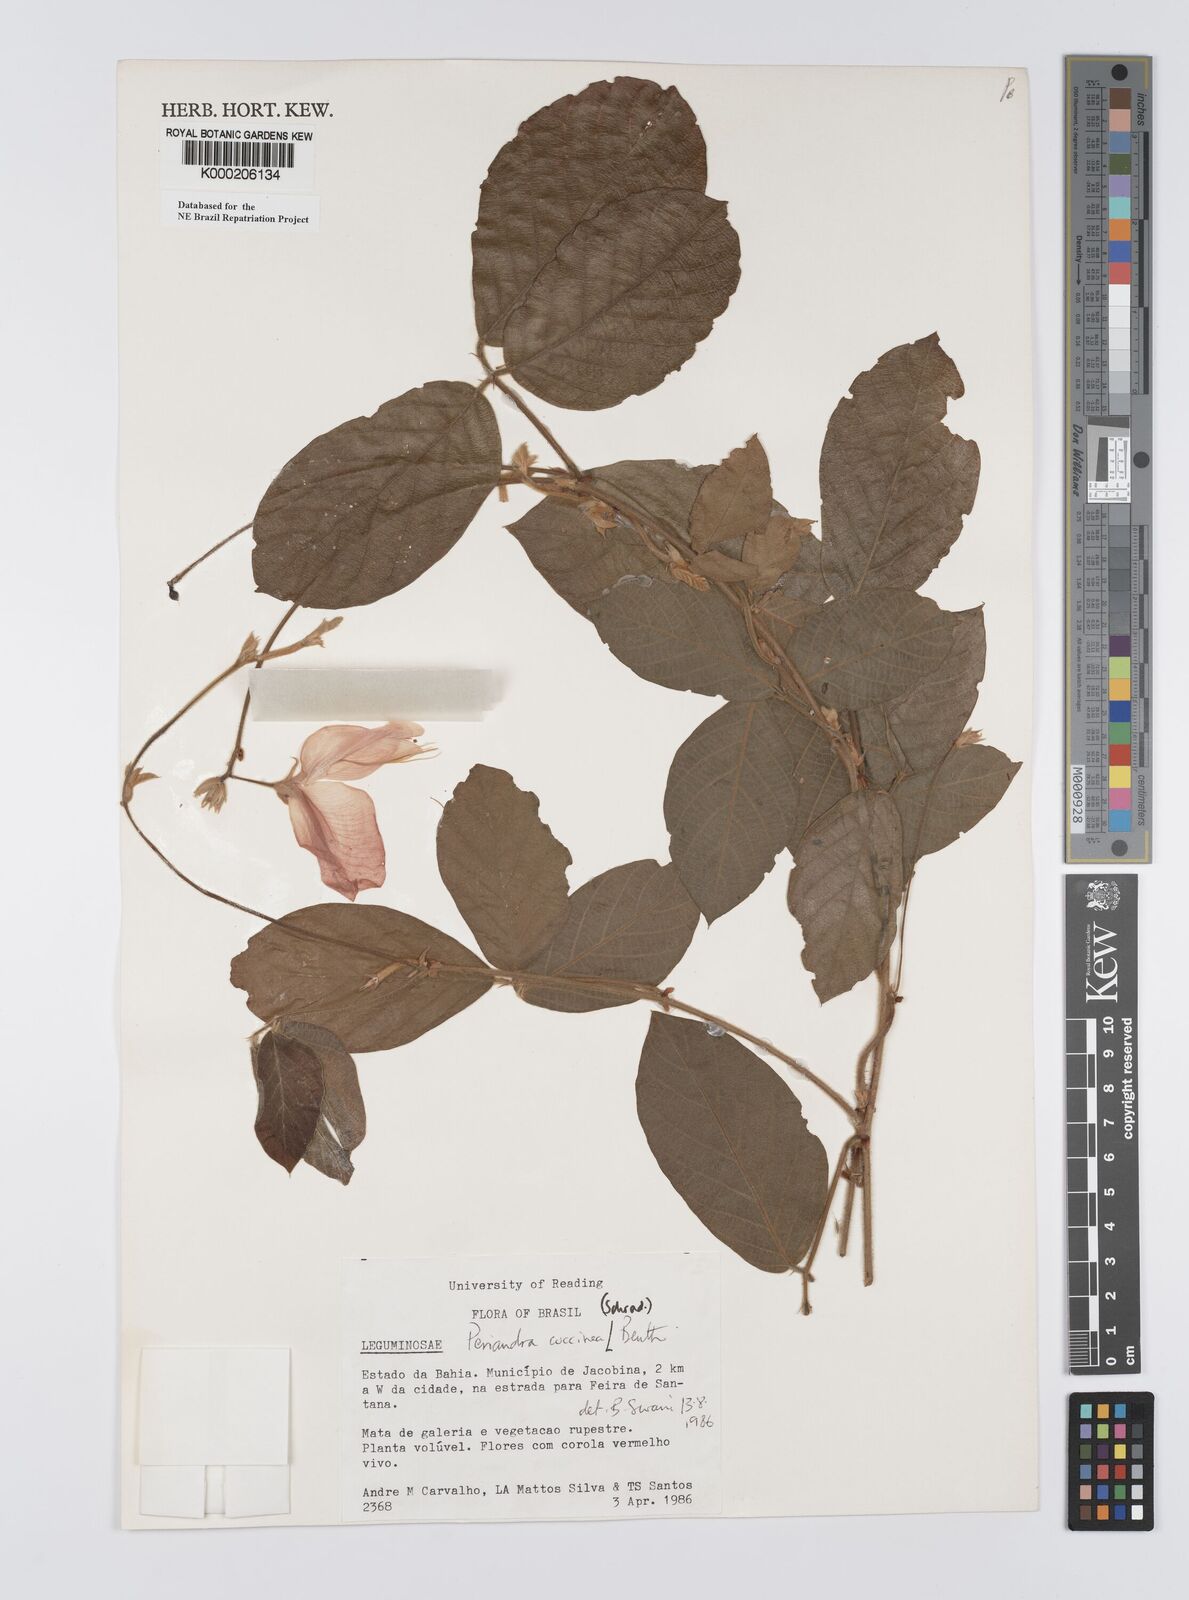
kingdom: Plantae
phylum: Tracheophyta
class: Magnoliopsida
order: Fabales
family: Fabaceae
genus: Periandra
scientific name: Periandra coccinea
